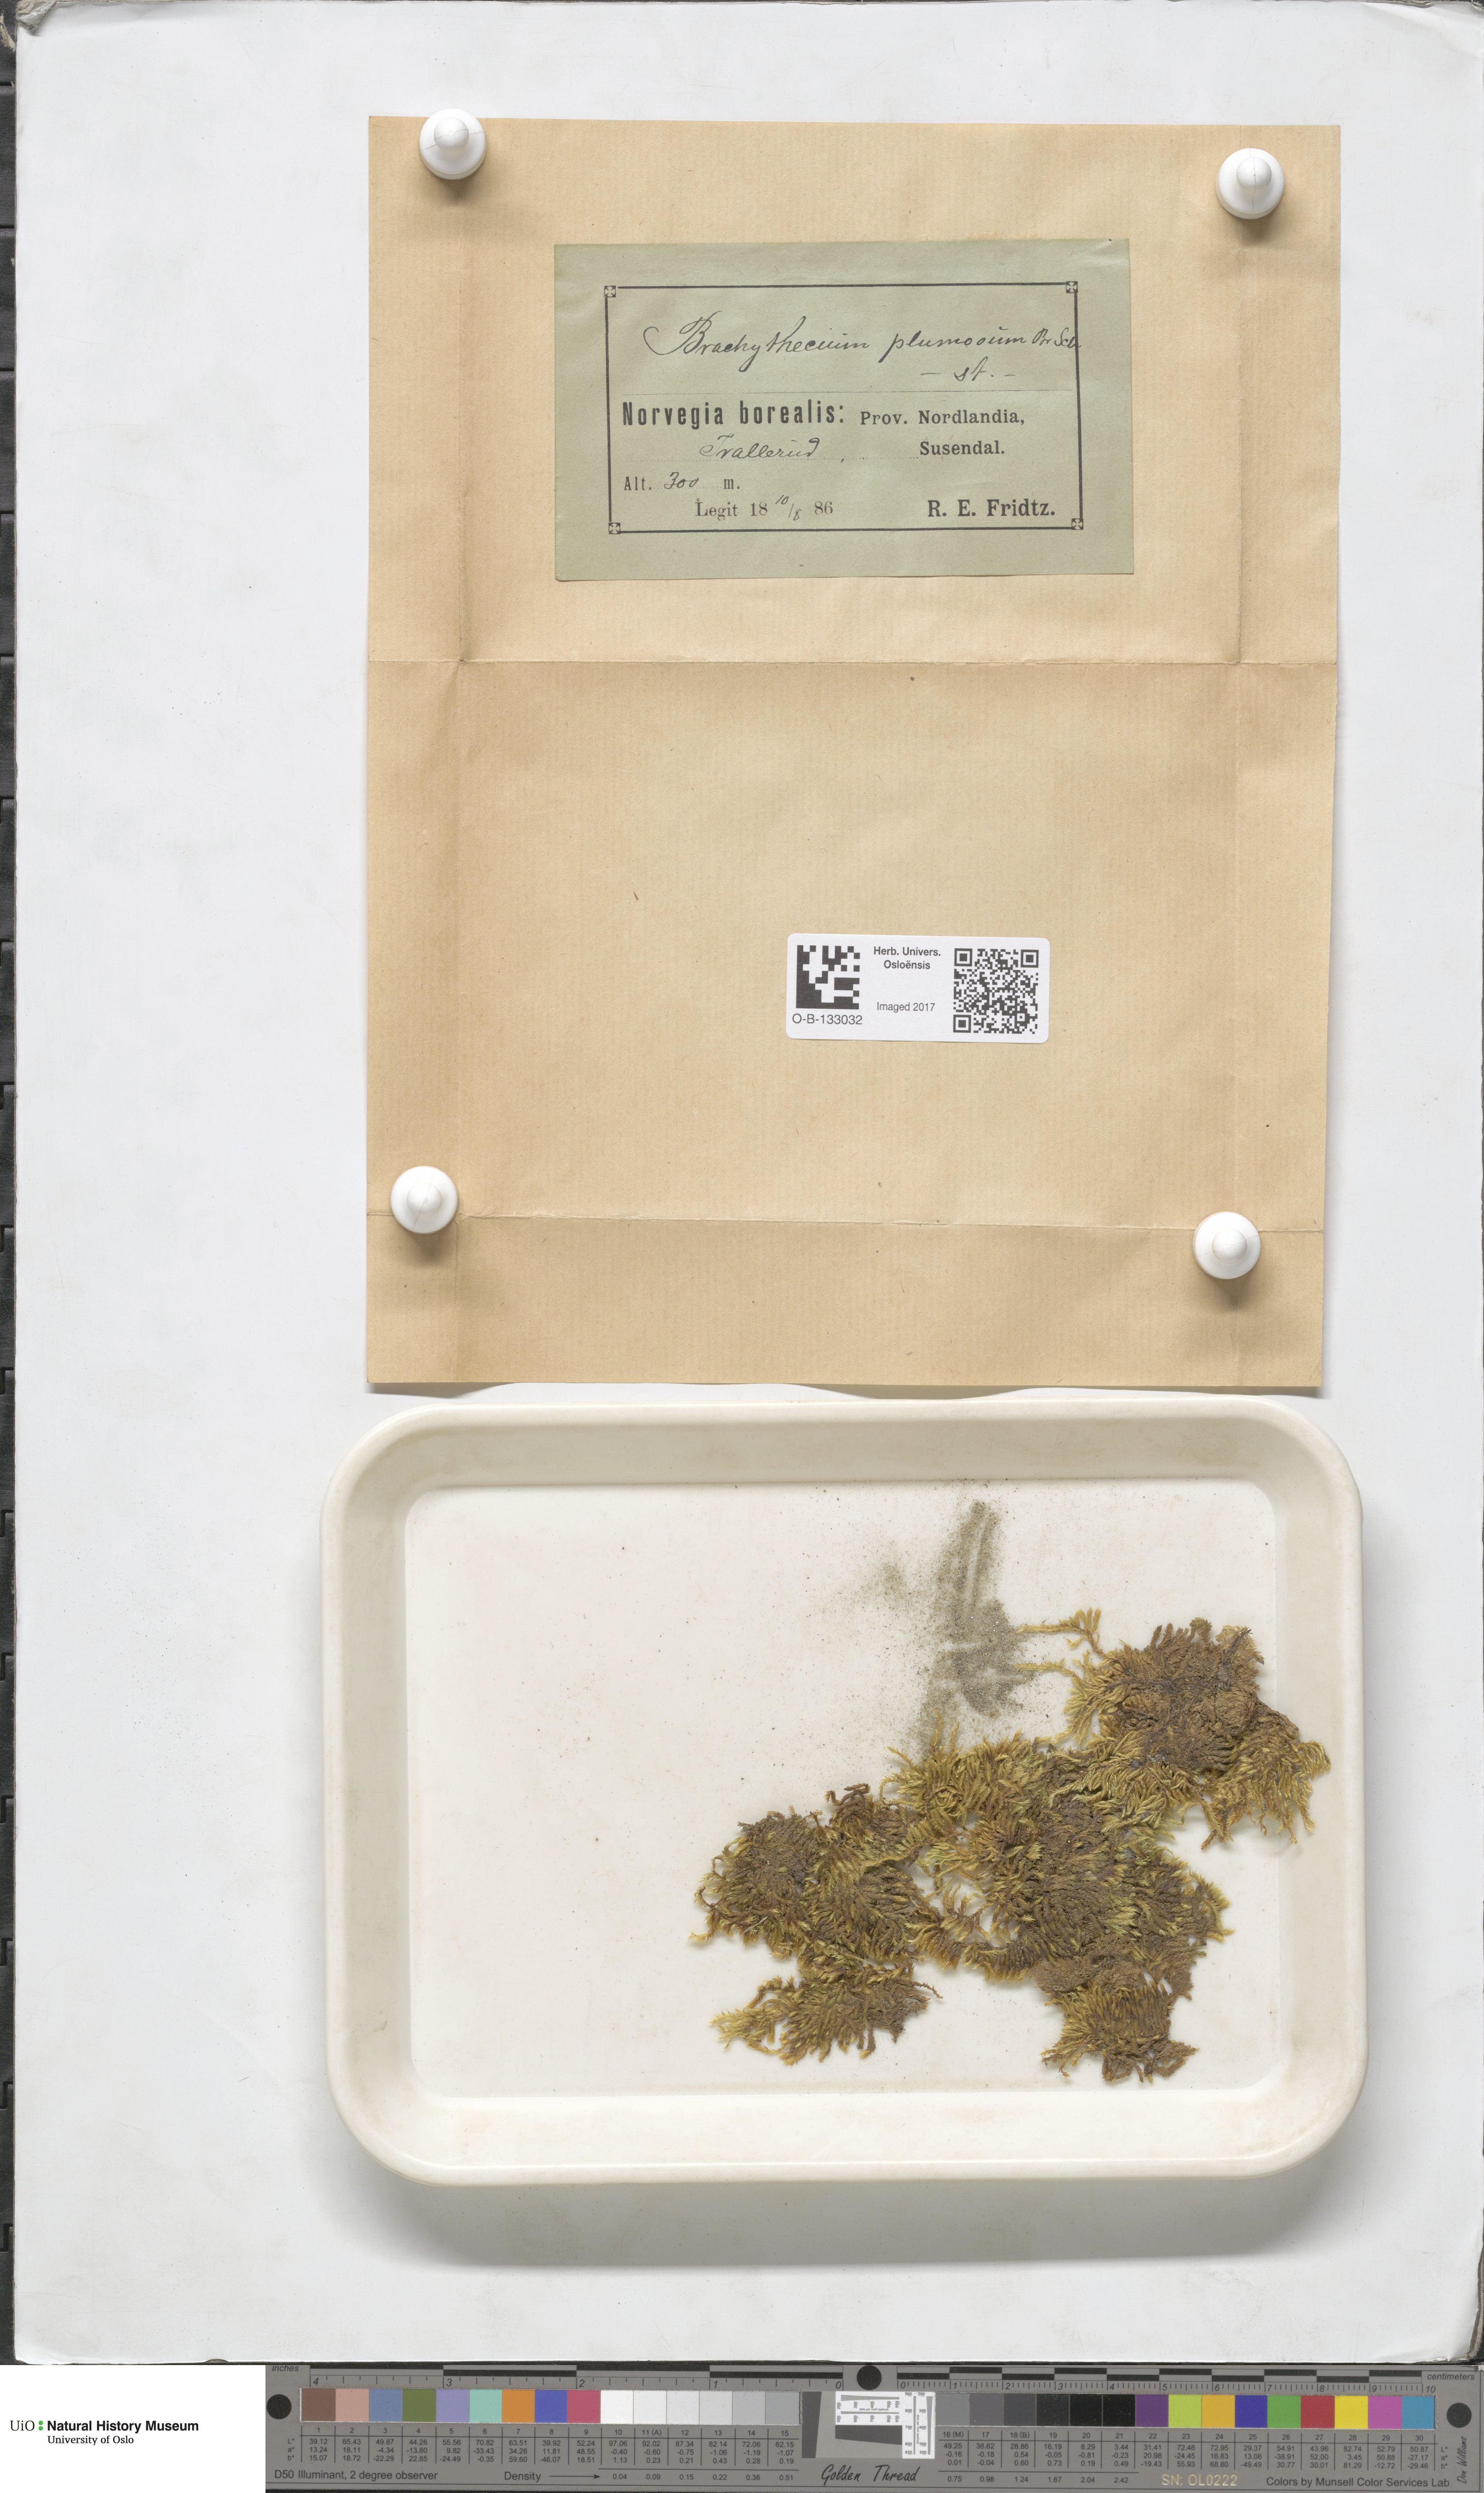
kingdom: Plantae
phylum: Bryophyta
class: Bryopsida
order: Hypnales
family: Brachytheciaceae
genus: Sciuro-hypnum
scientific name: Sciuro-hypnum plumosum
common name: Rusty feather-moss
